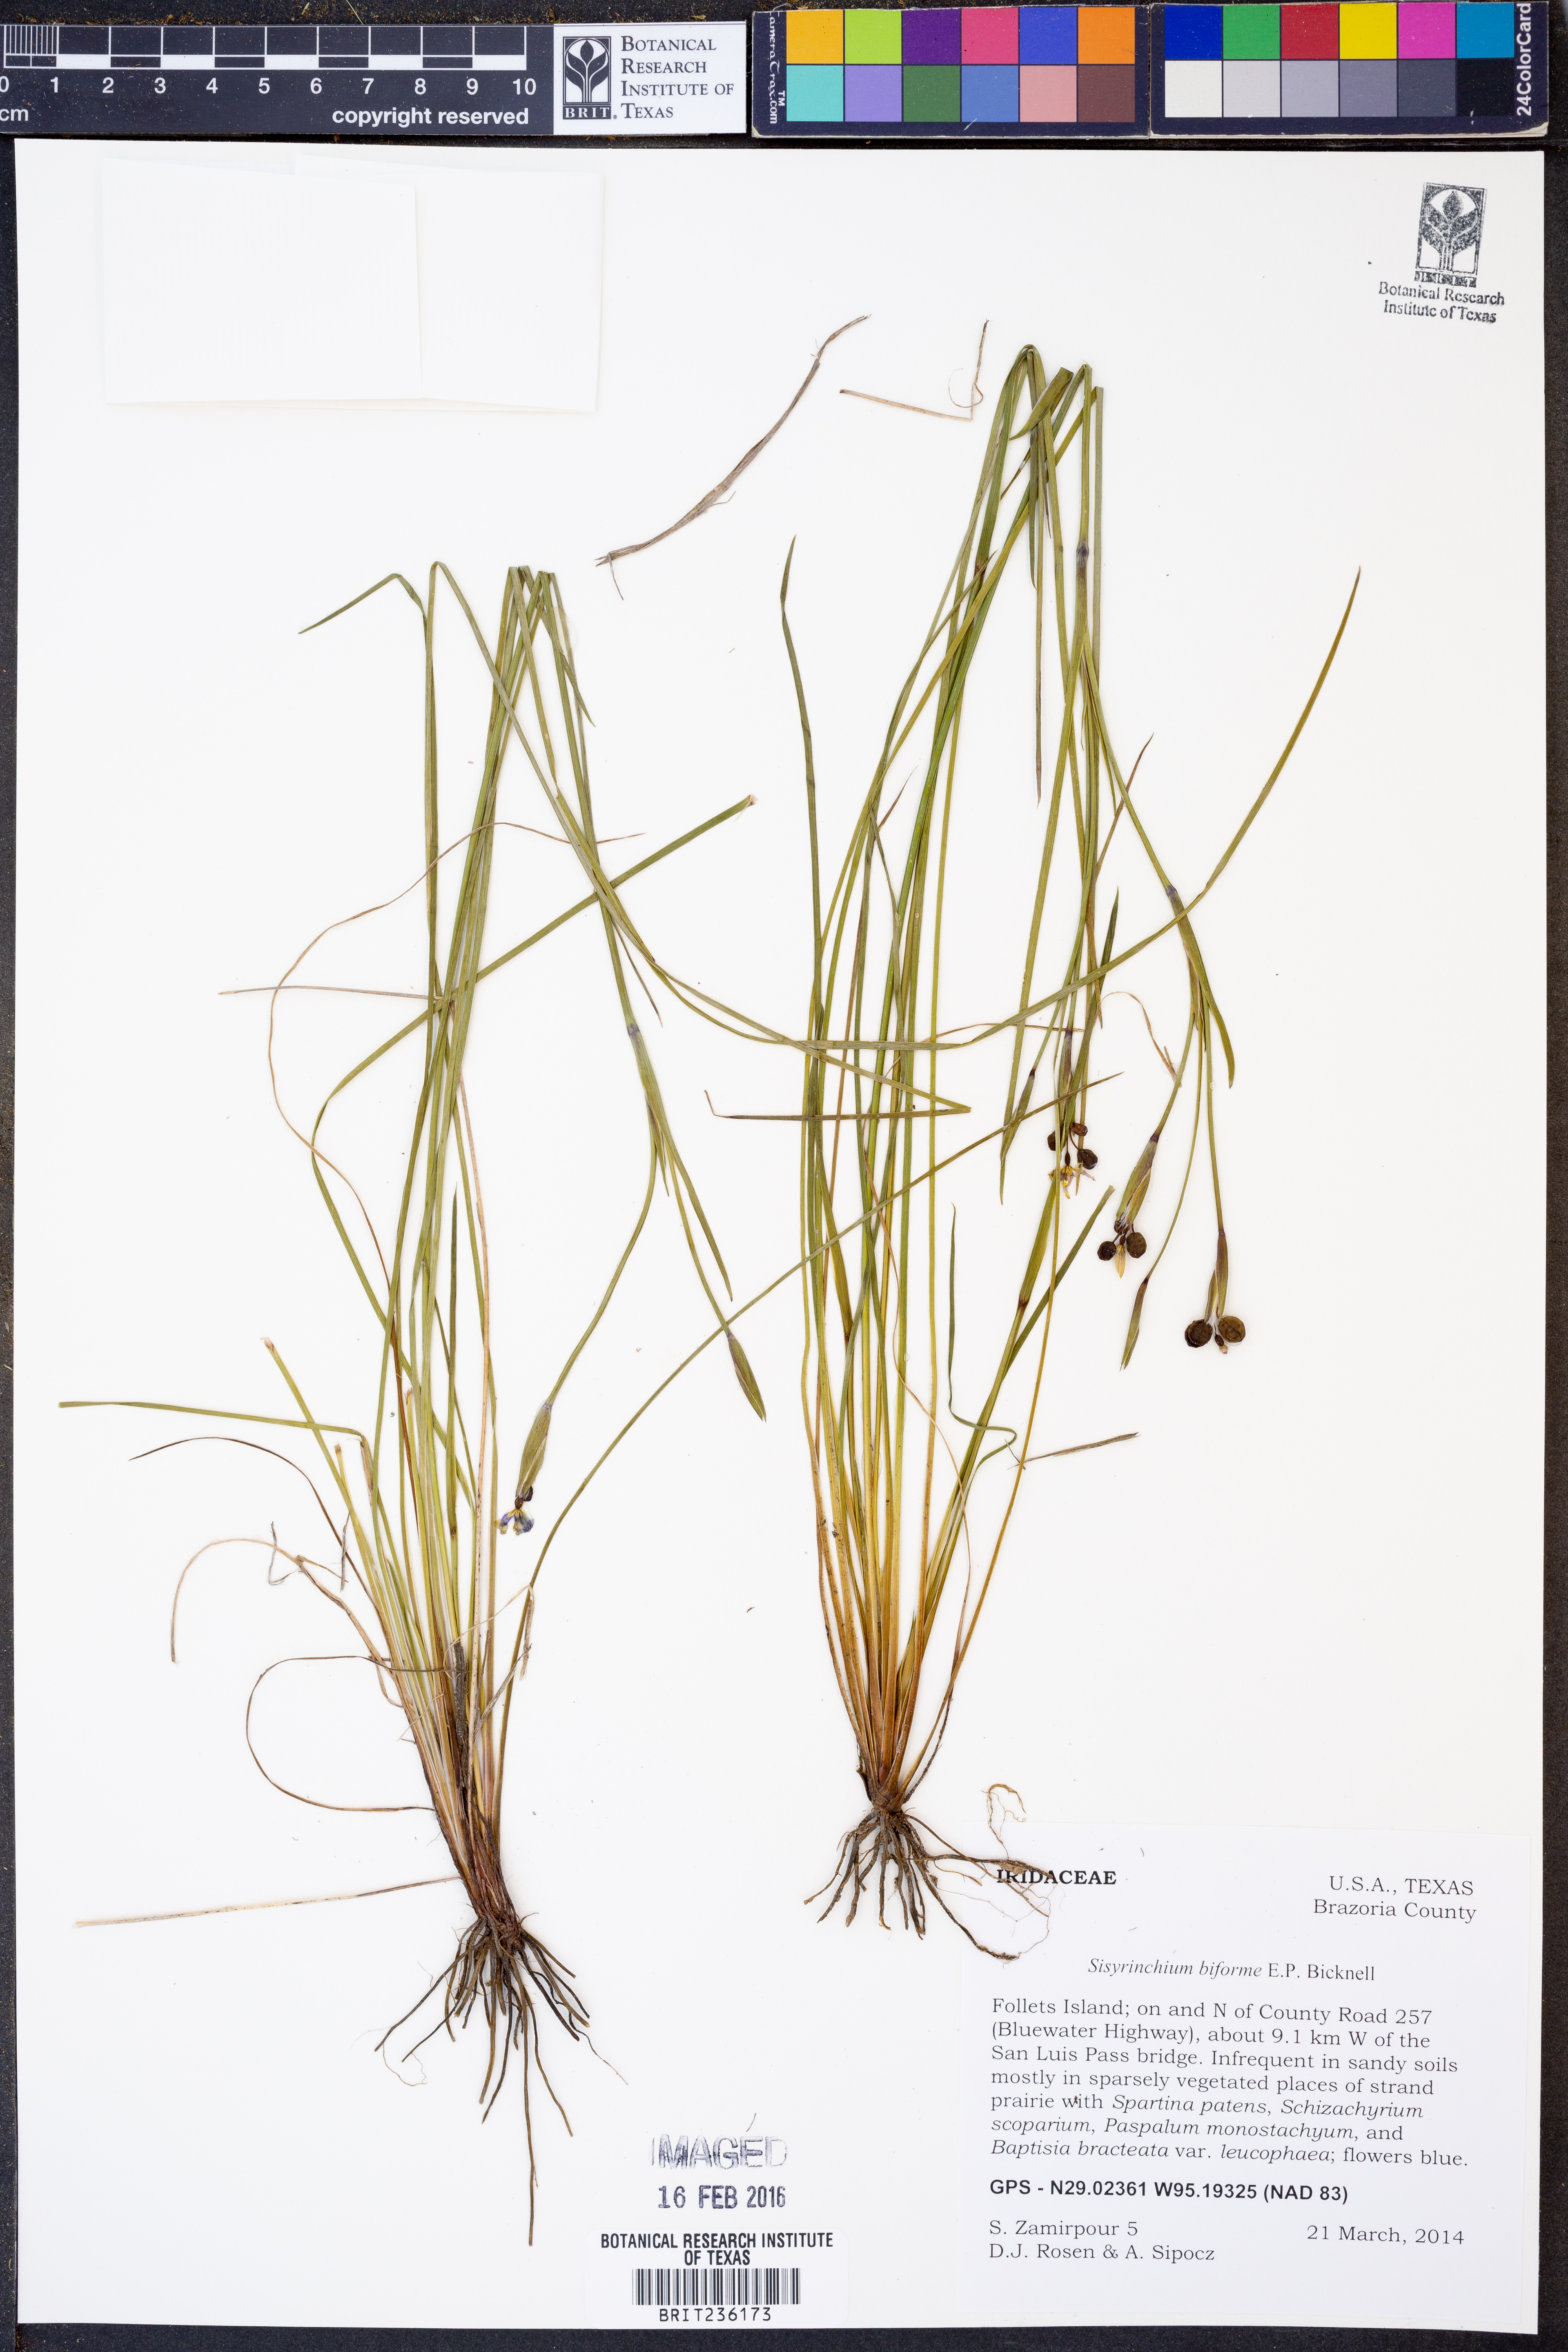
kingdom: Plantae
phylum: Tracheophyta
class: Liliopsida
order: Asparagales
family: Iridaceae
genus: Sisyrinchium
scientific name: Sisyrinchium biforme
